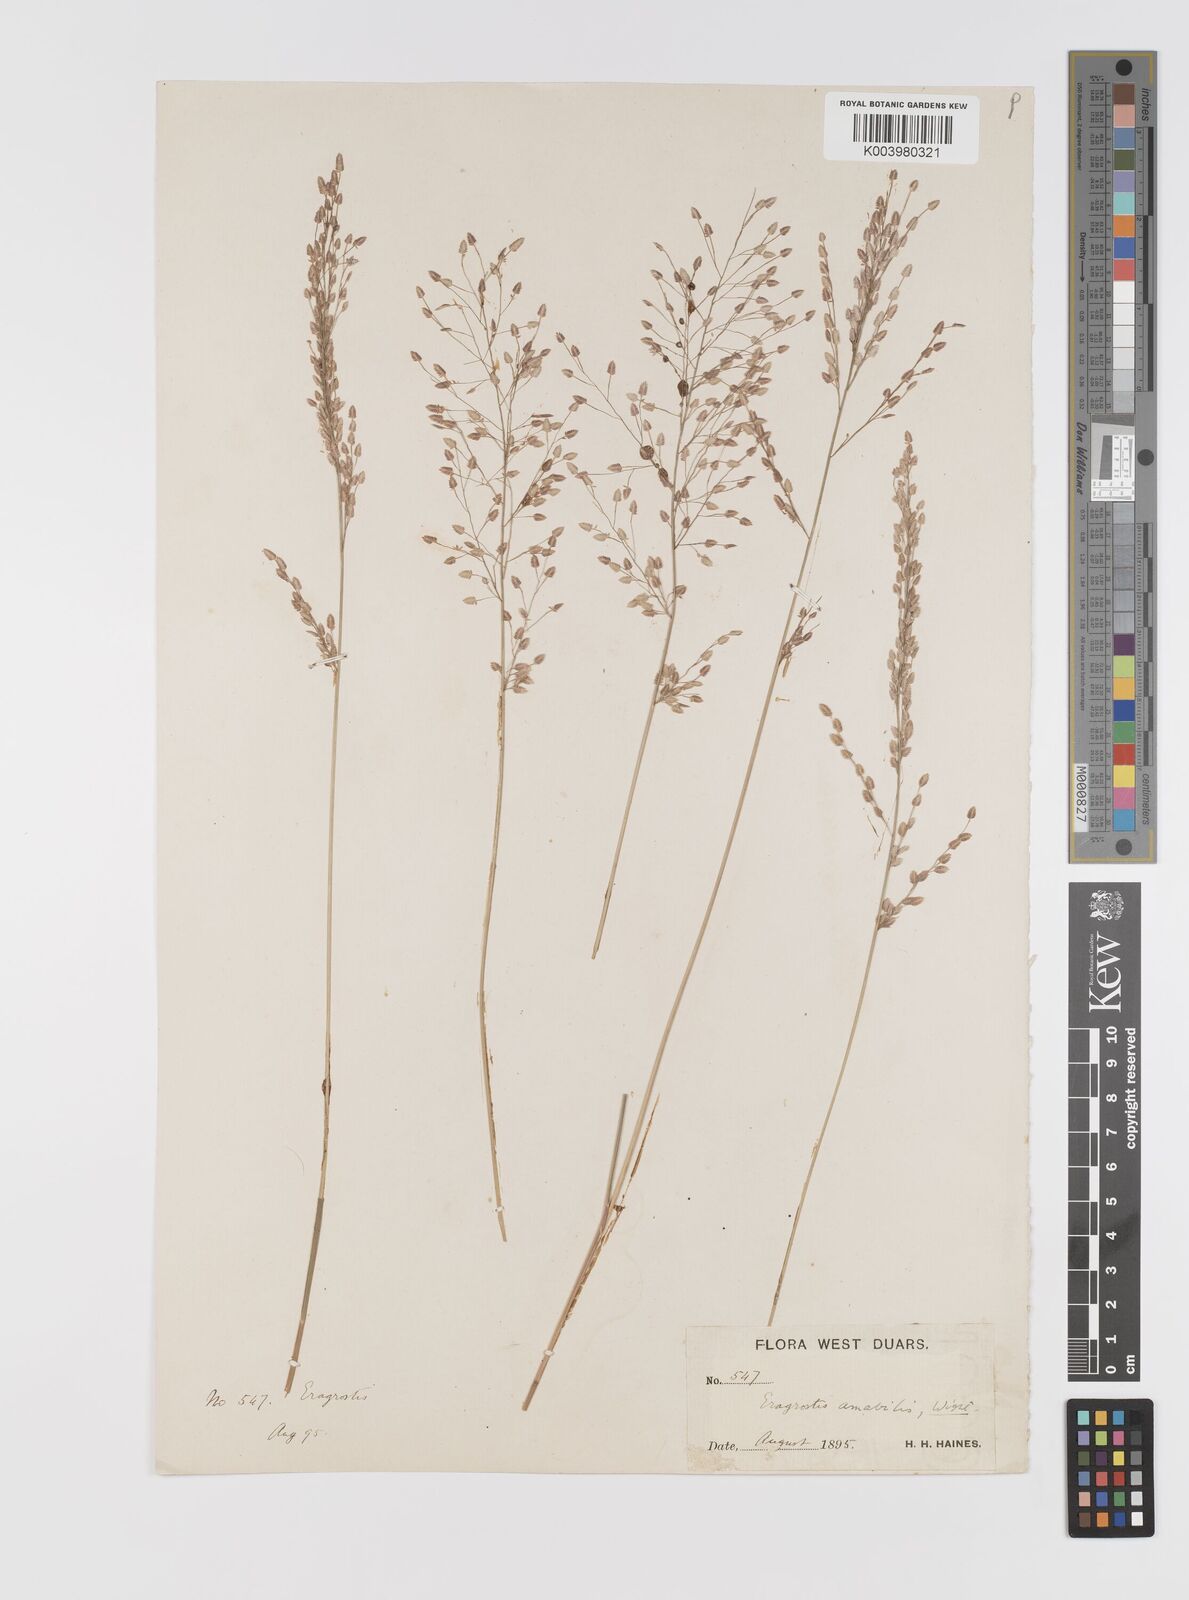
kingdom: Plantae
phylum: Tracheophyta
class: Liliopsida
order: Poales
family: Poaceae
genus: Eragrostis
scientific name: Eragrostis unioloides
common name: Chinese lovegrass
